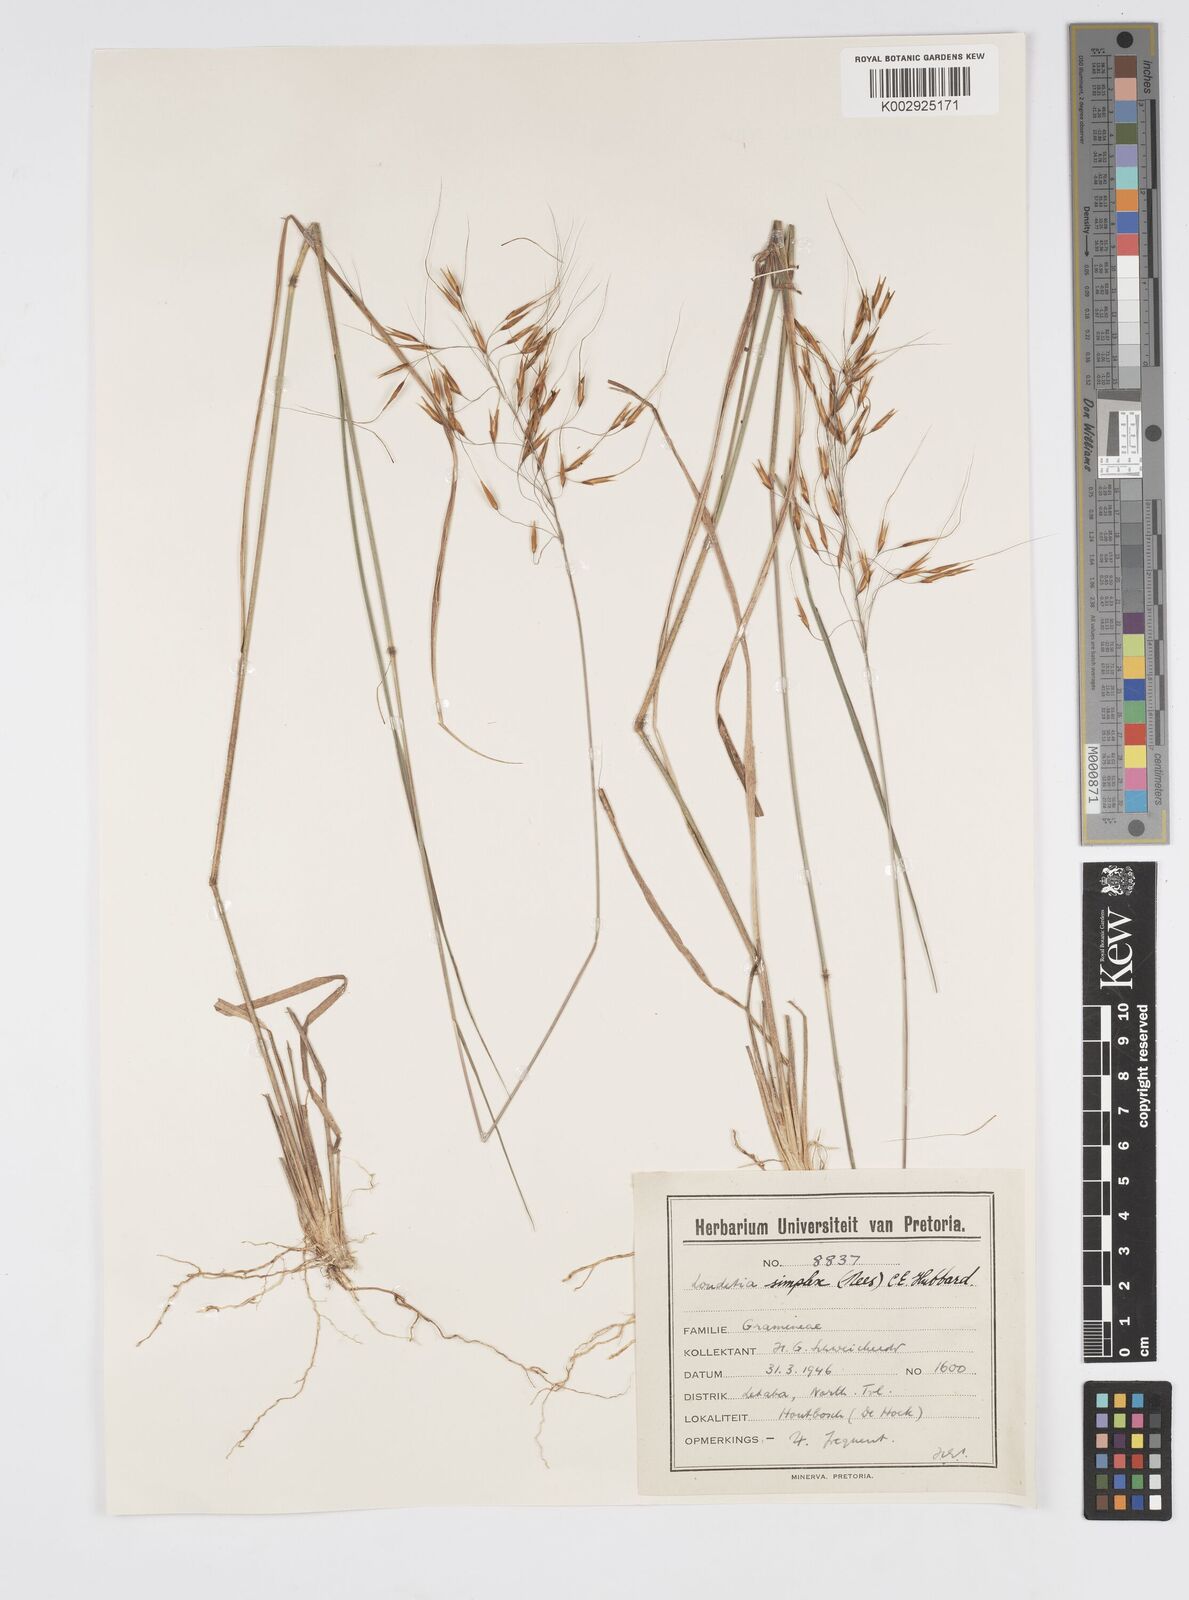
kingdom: Plantae
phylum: Tracheophyta
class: Liliopsida
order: Poales
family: Poaceae
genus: Loudetia
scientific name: Loudetia simplex
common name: Common russet grass
